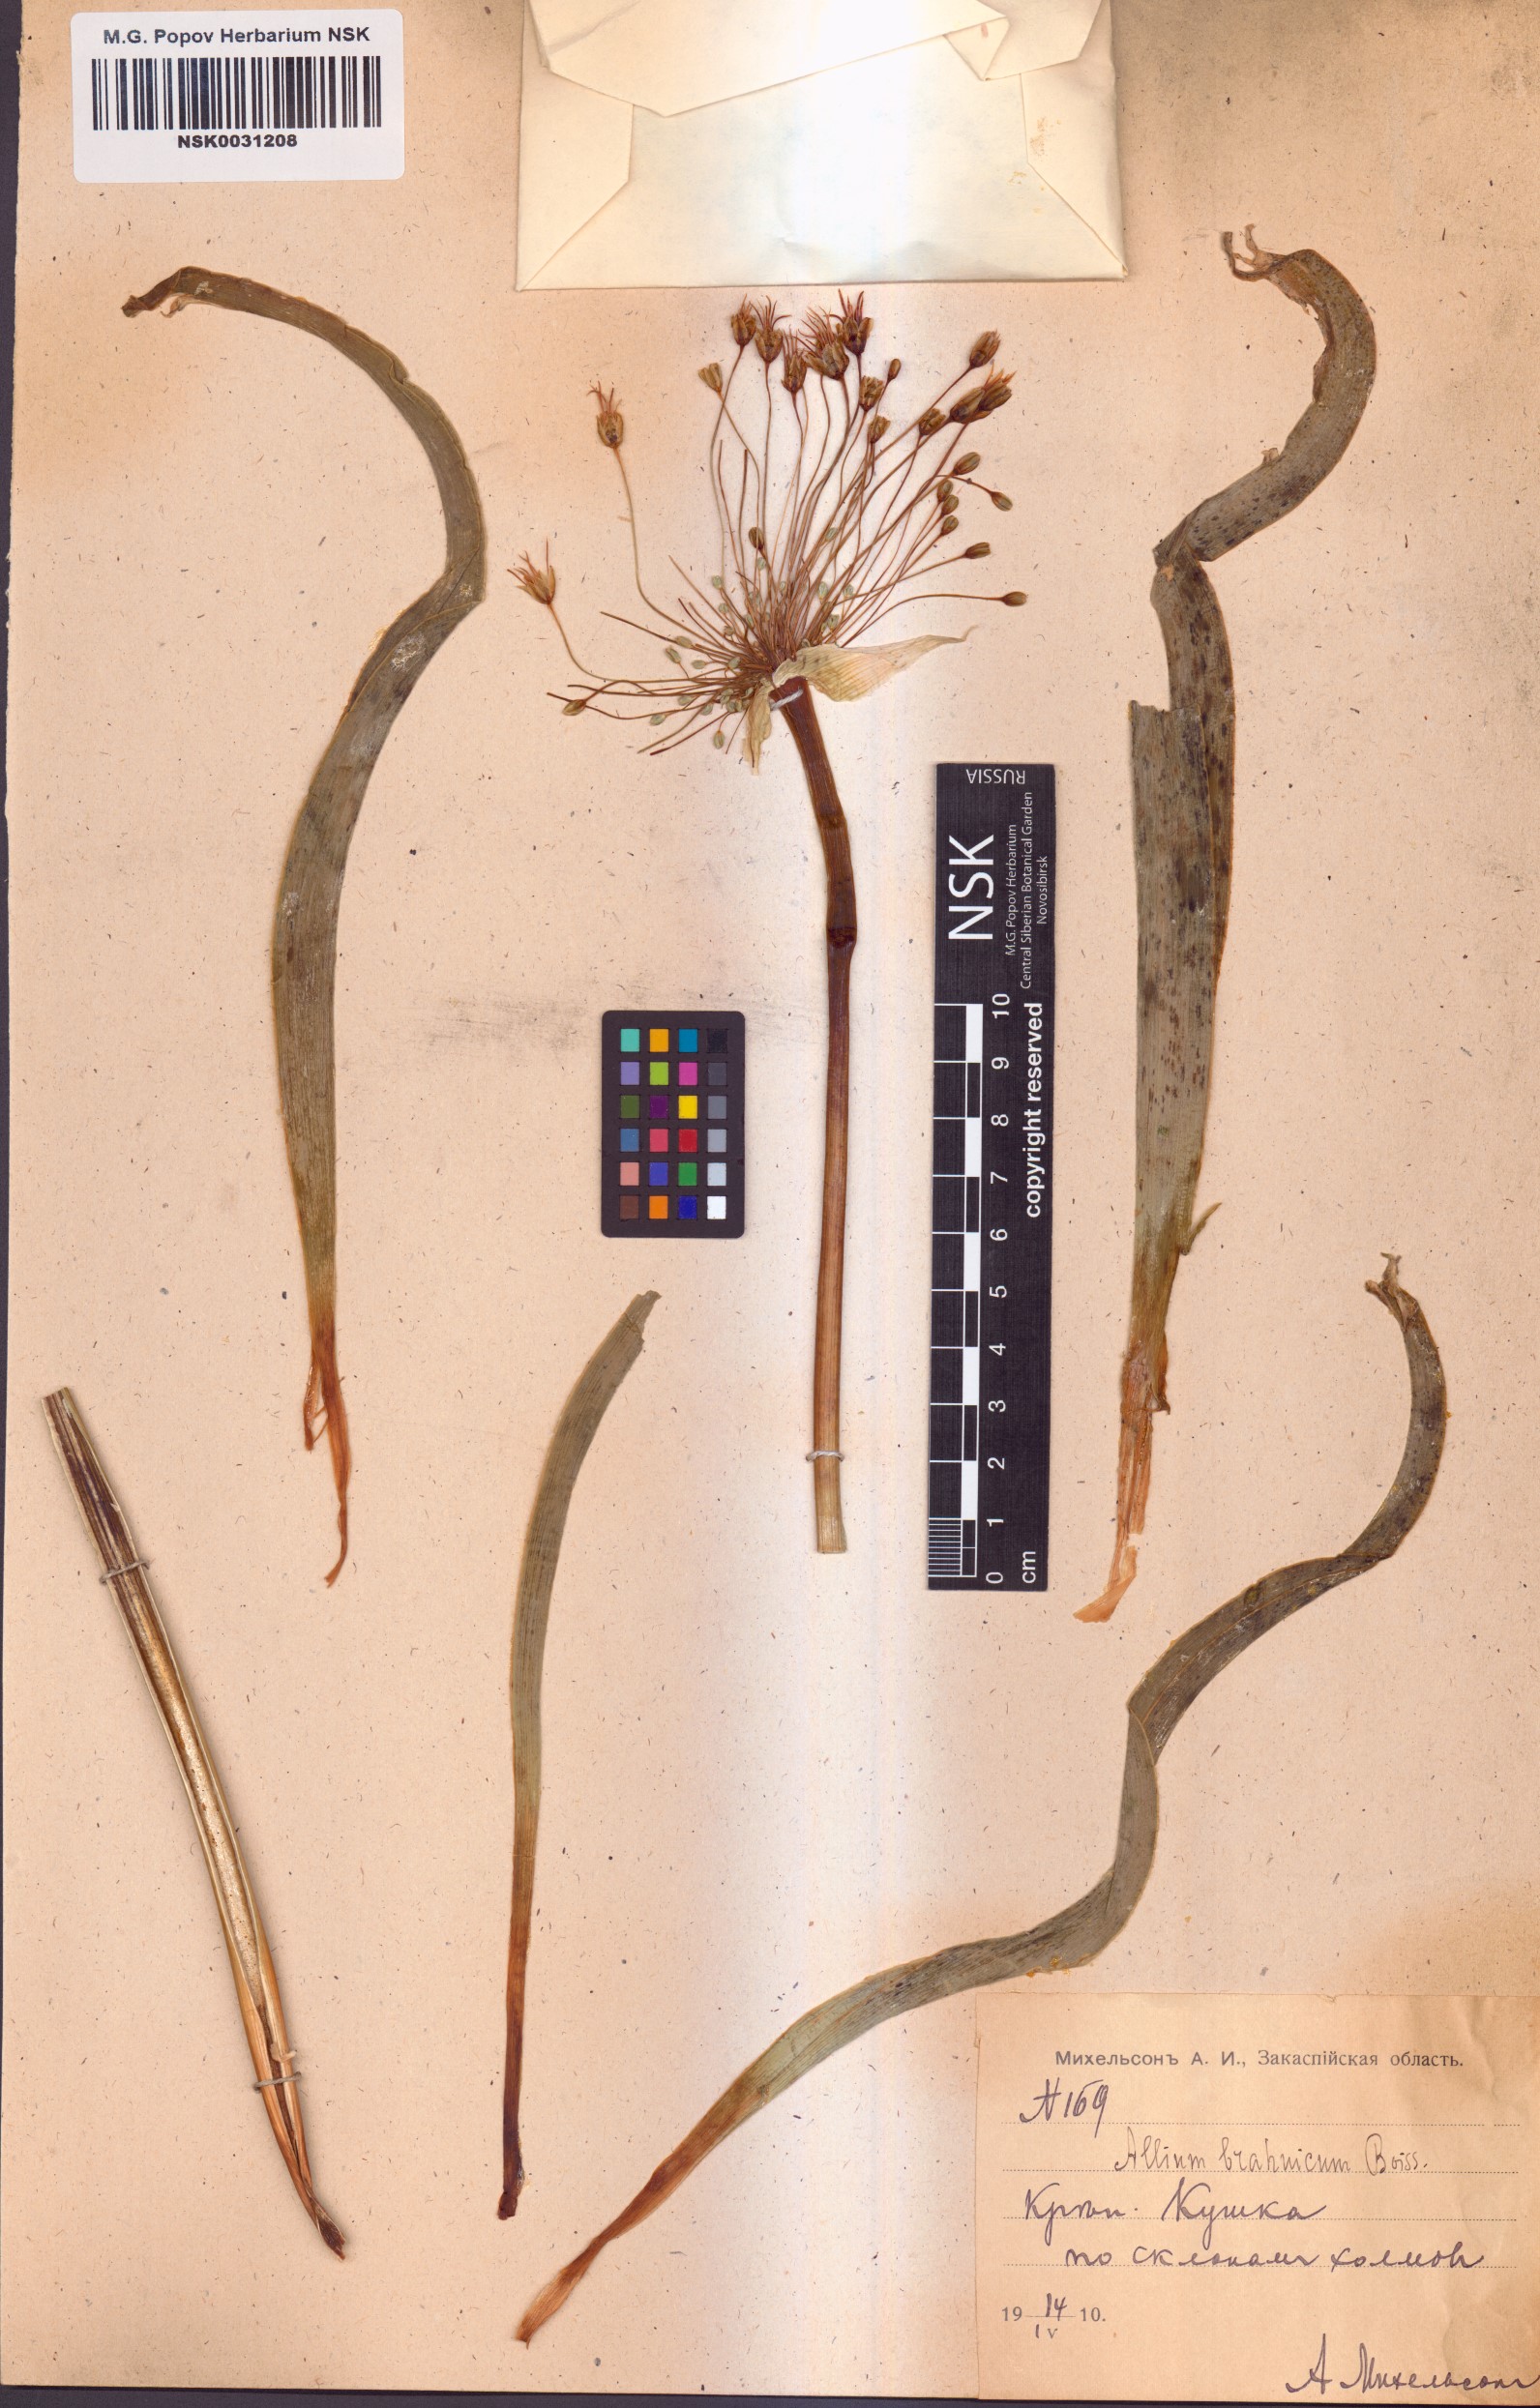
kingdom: Plantae
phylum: Tracheophyta
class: Liliopsida
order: Asparagales
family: Amaryllidaceae
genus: Allium
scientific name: Allium caspium
